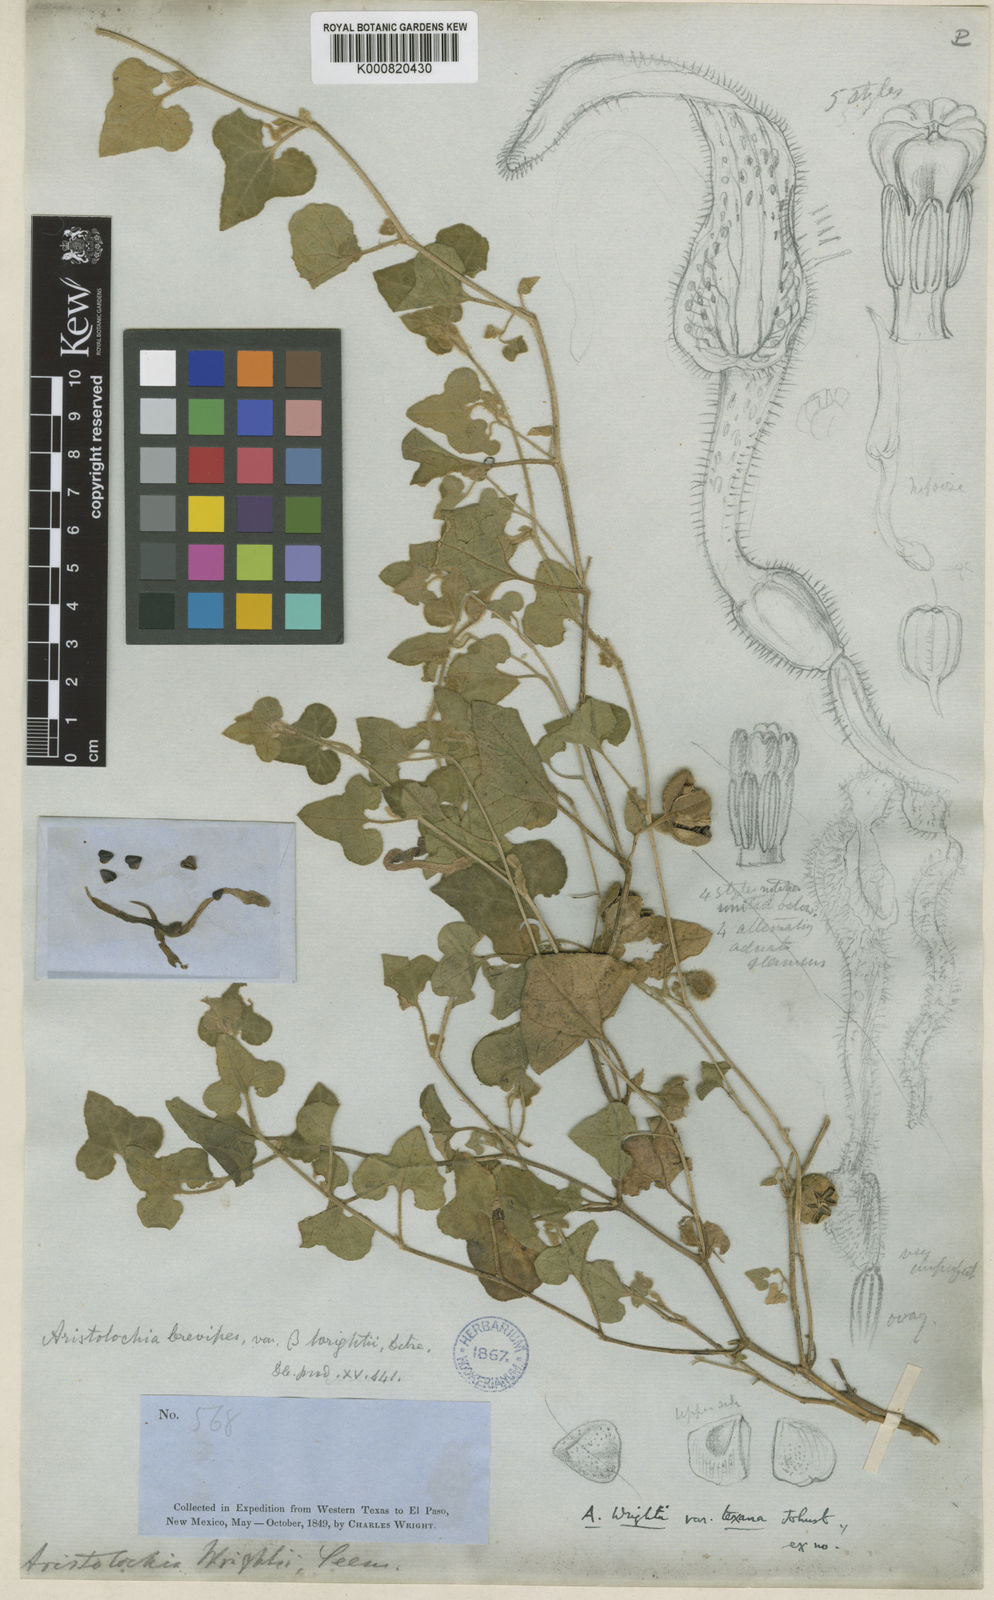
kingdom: Plantae
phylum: Tracheophyta
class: Magnoliopsida
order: Piperales
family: Aristolochiaceae
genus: Aristolochia
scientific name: Aristolochia wrightii
